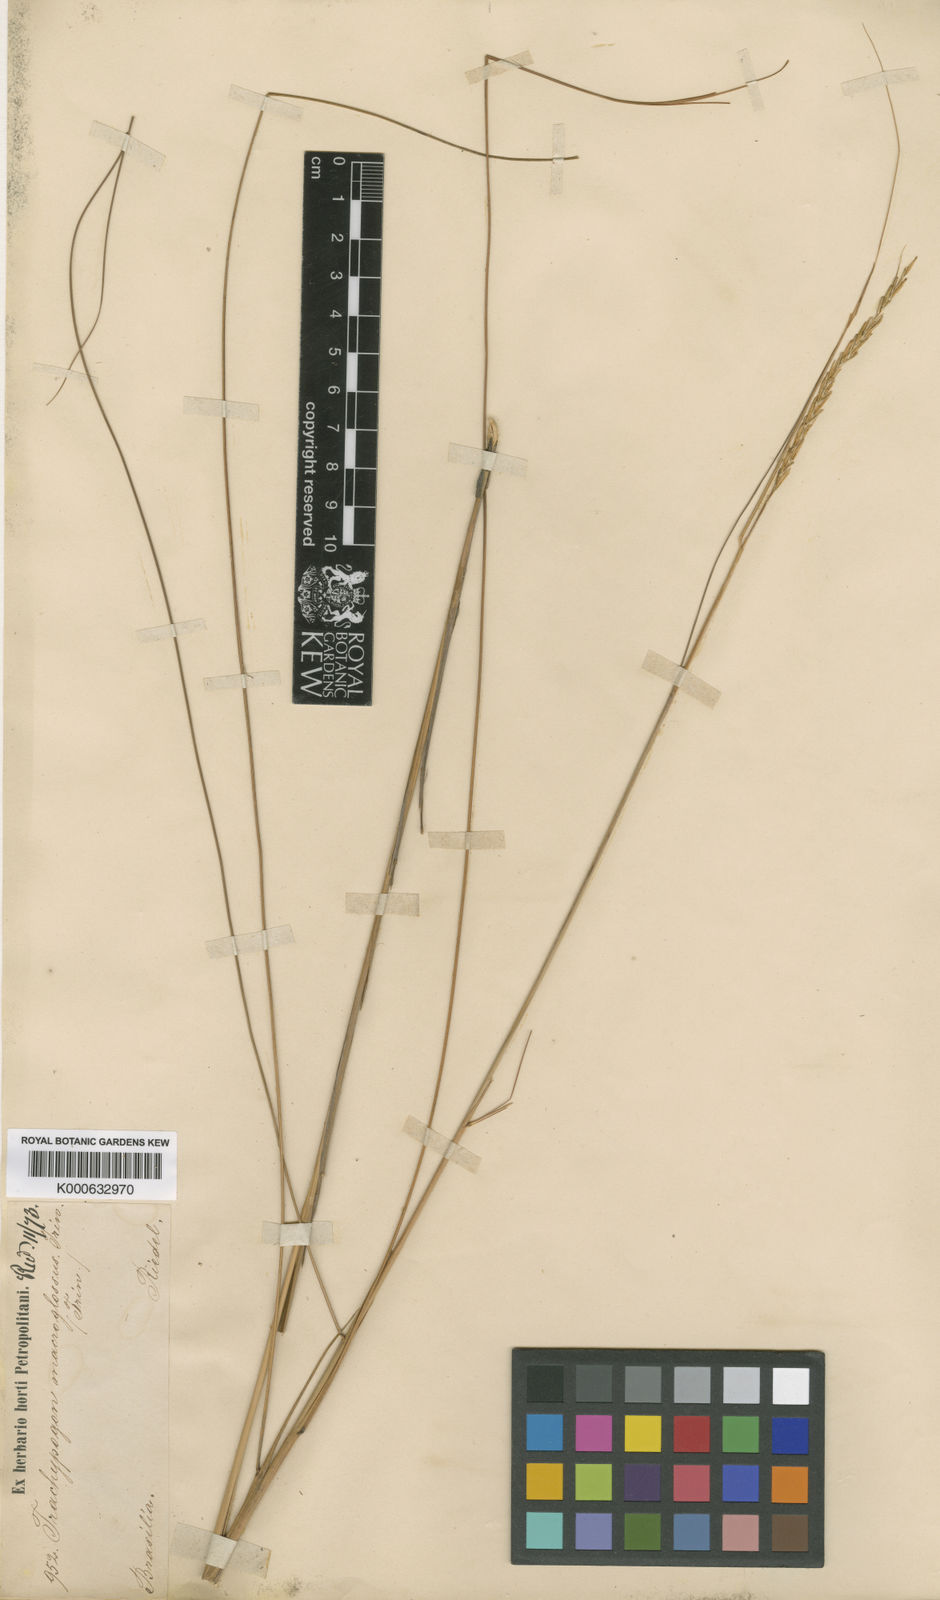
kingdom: Plantae
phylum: Tracheophyta
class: Liliopsida
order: Poales
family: Poaceae
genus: Trachypogon
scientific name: Trachypogon macroglossus
